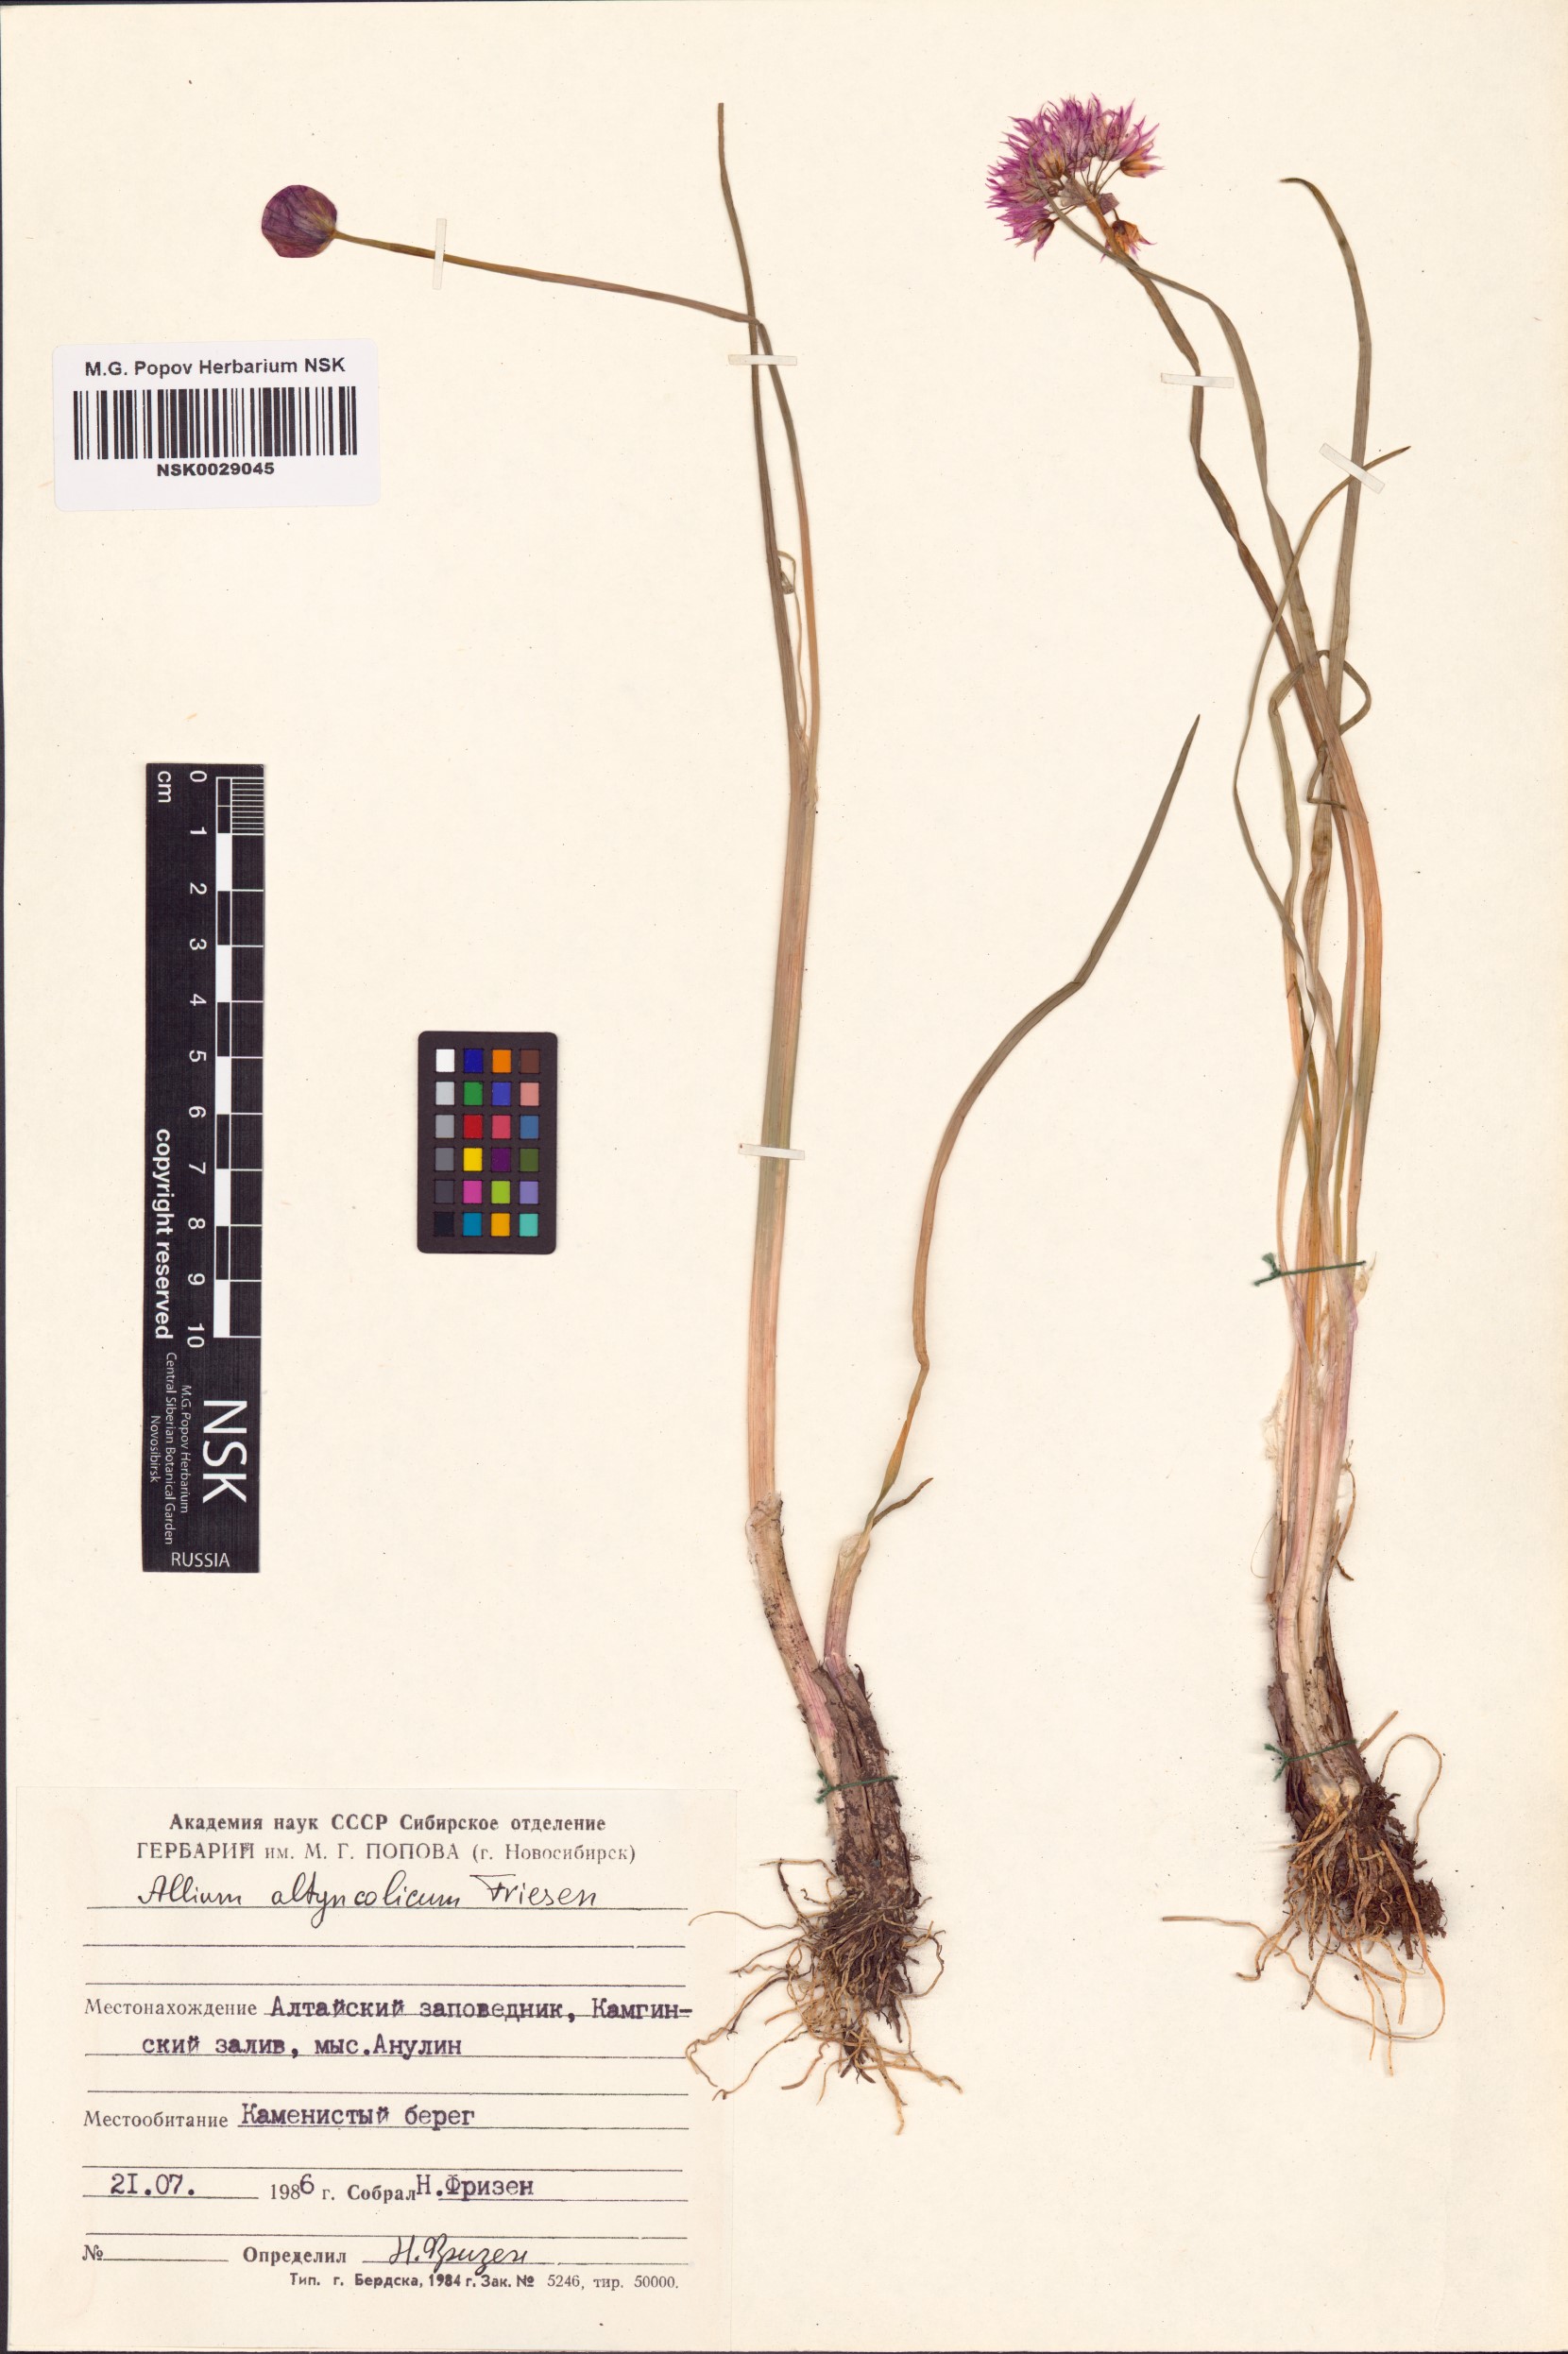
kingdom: Plantae
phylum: Tracheophyta
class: Liliopsida
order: Asparagales
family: Amaryllidaceae
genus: Allium
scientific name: Allium altyncolicum
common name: Altynkol chive
